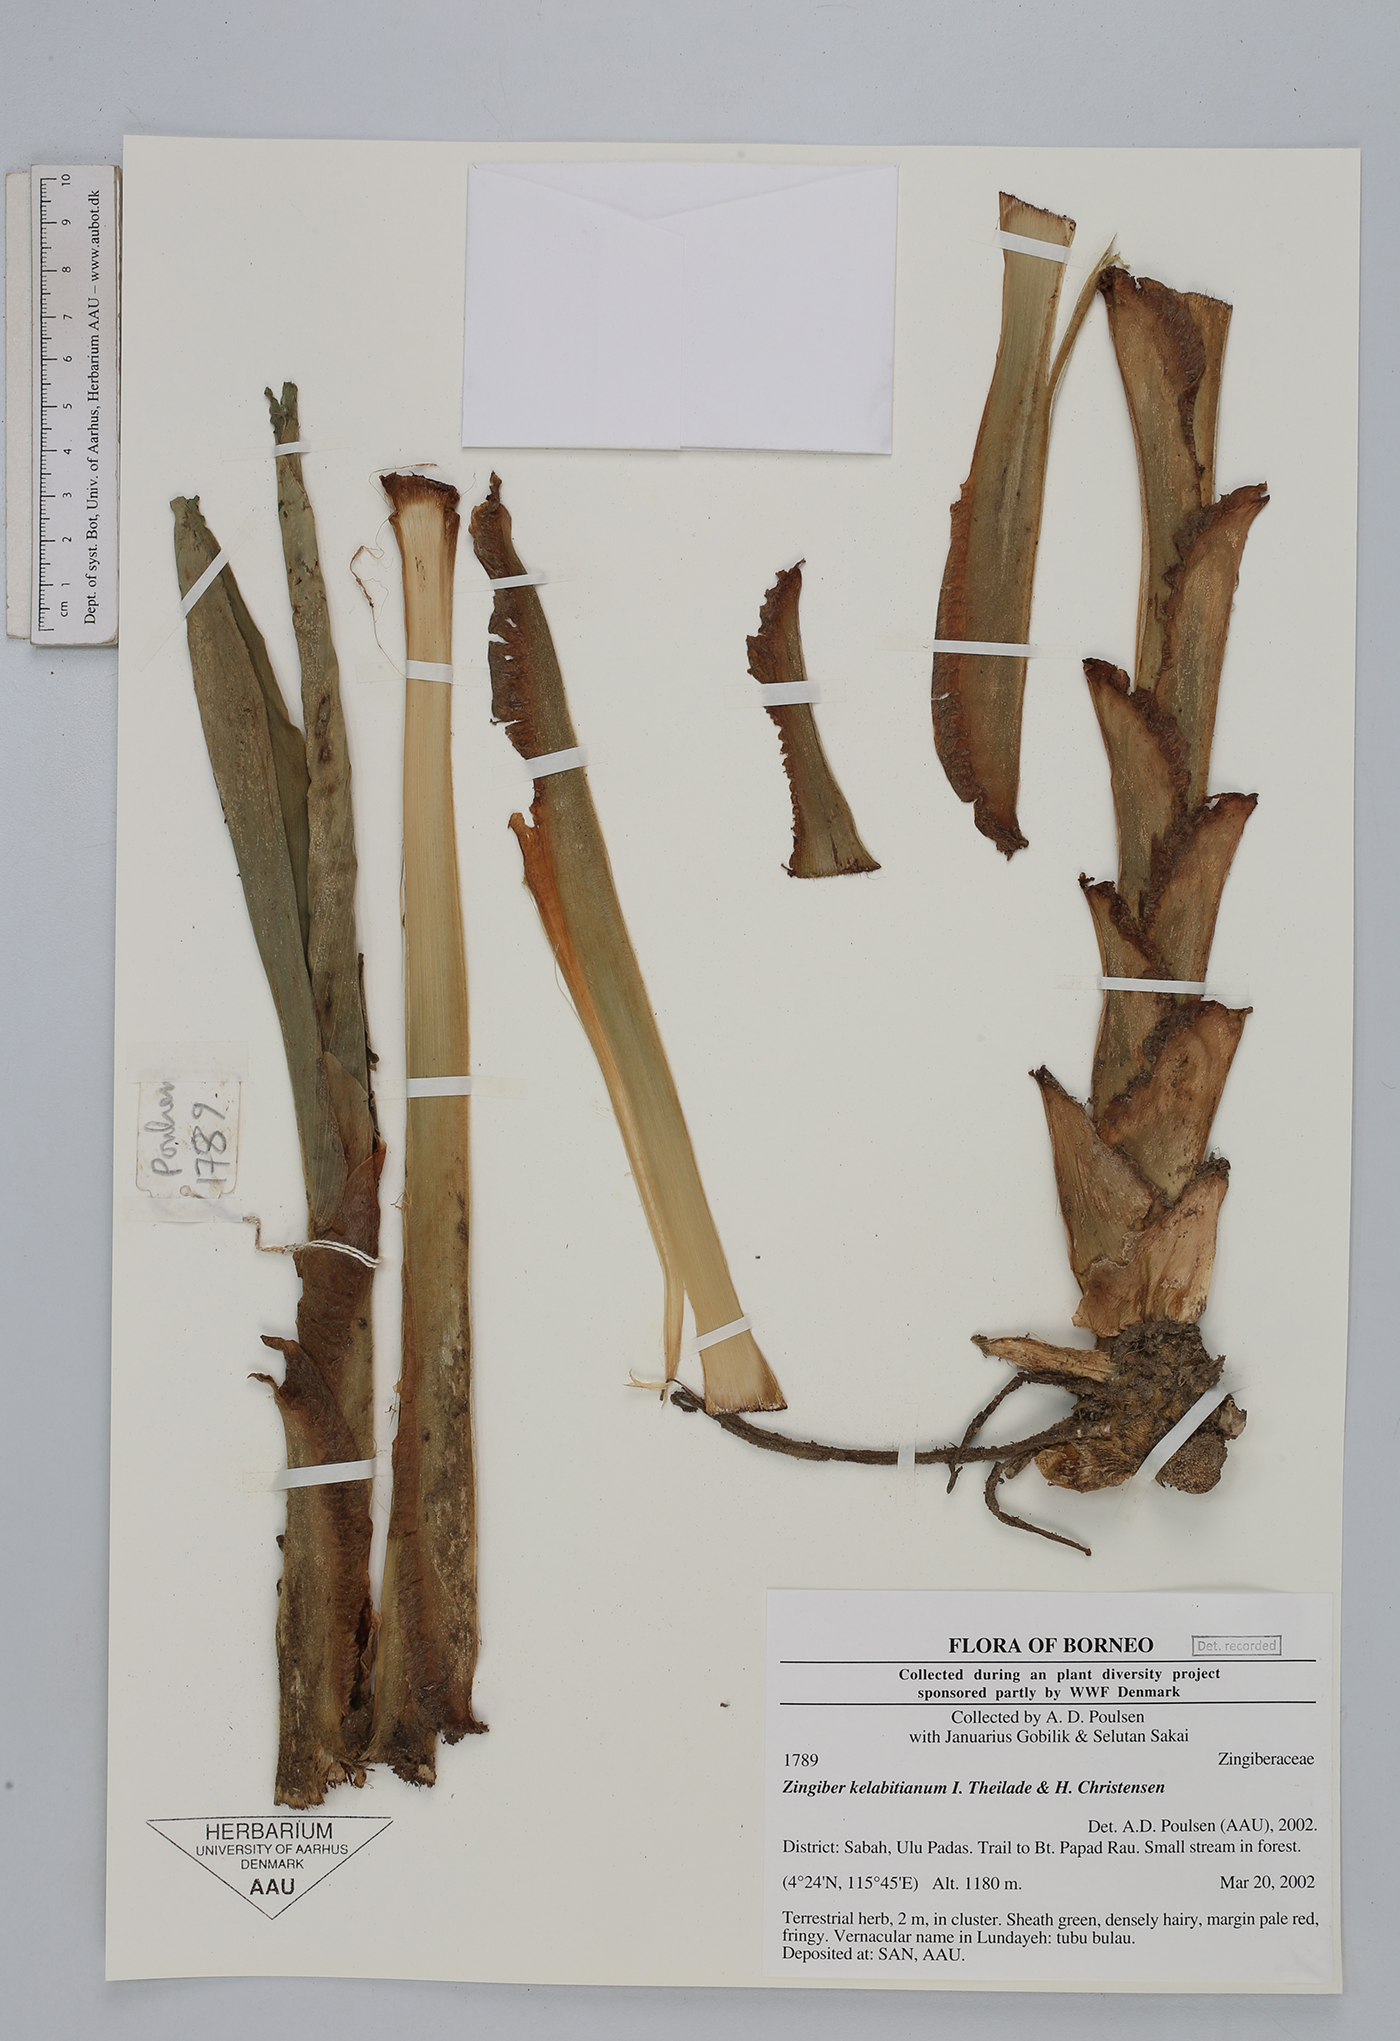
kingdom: Plantae
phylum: Tracheophyta
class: Liliopsida
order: Zingiberales
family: Zingiberaceae
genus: Zingiber
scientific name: Zingiber kelabitianum
